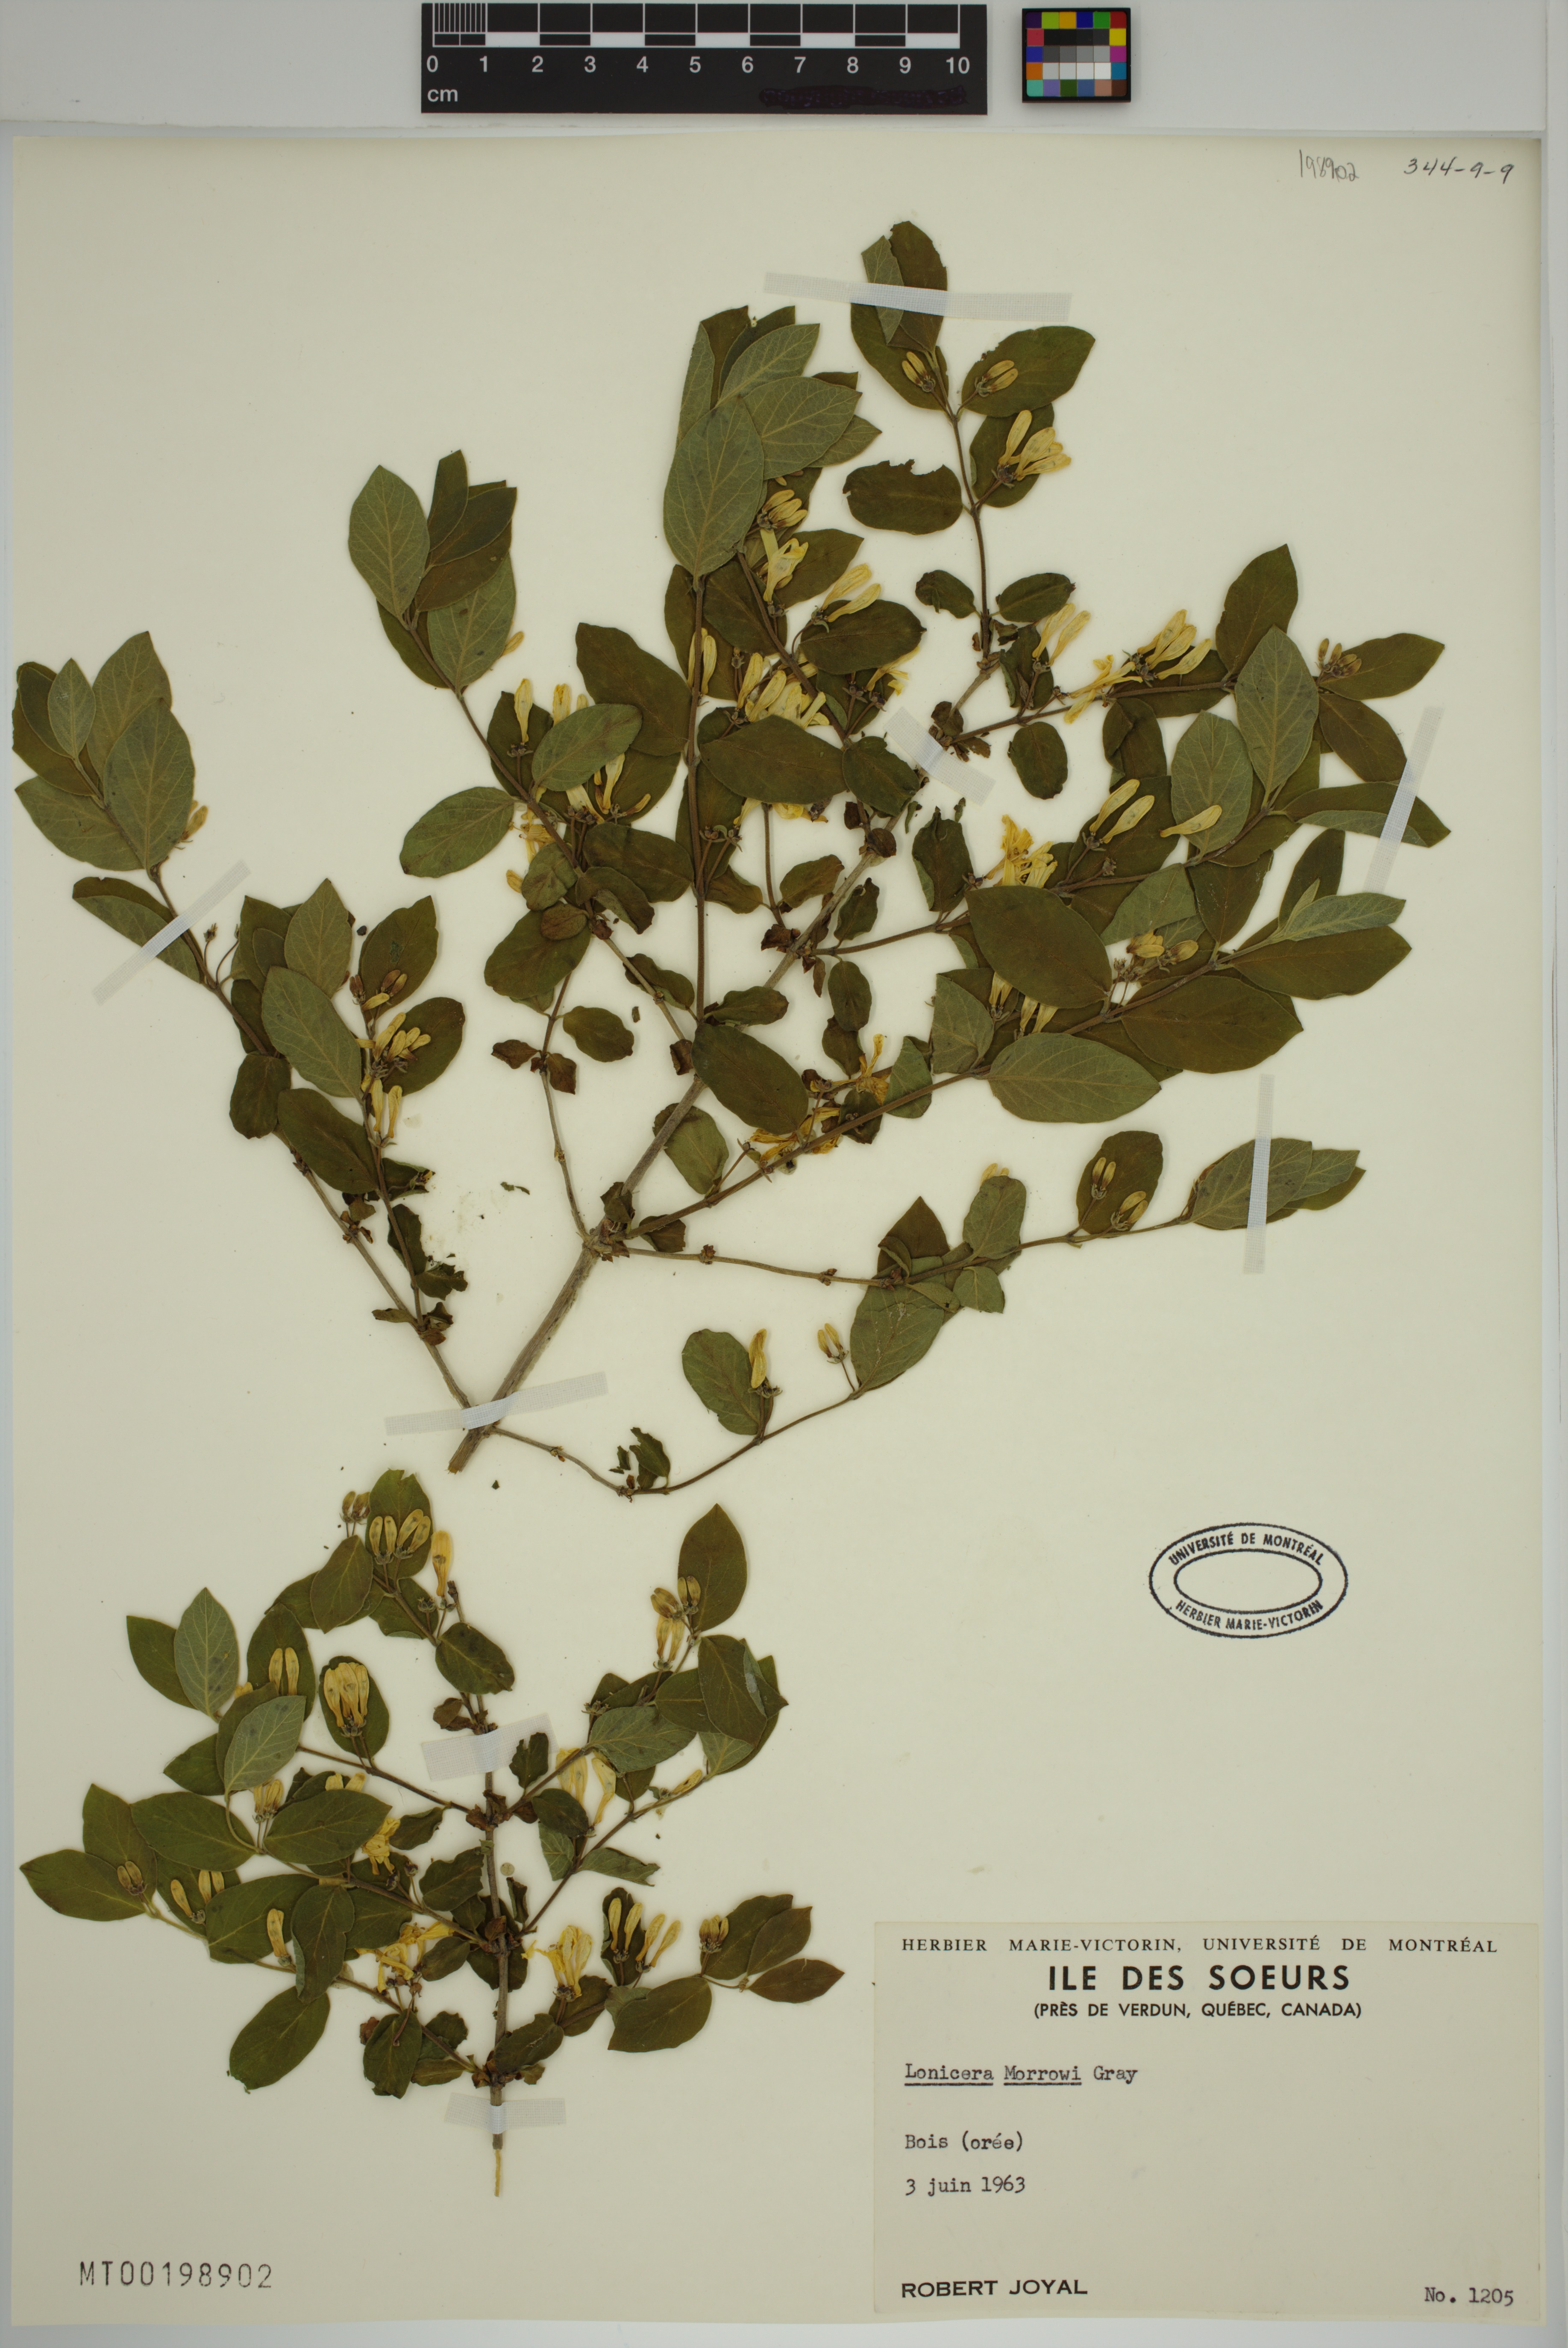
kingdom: Plantae
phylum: Tracheophyta
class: Magnoliopsida
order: Dipsacales
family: Caprifoliaceae
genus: Lonicera
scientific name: Lonicera morrowii
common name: Morrow's honeysuckle
